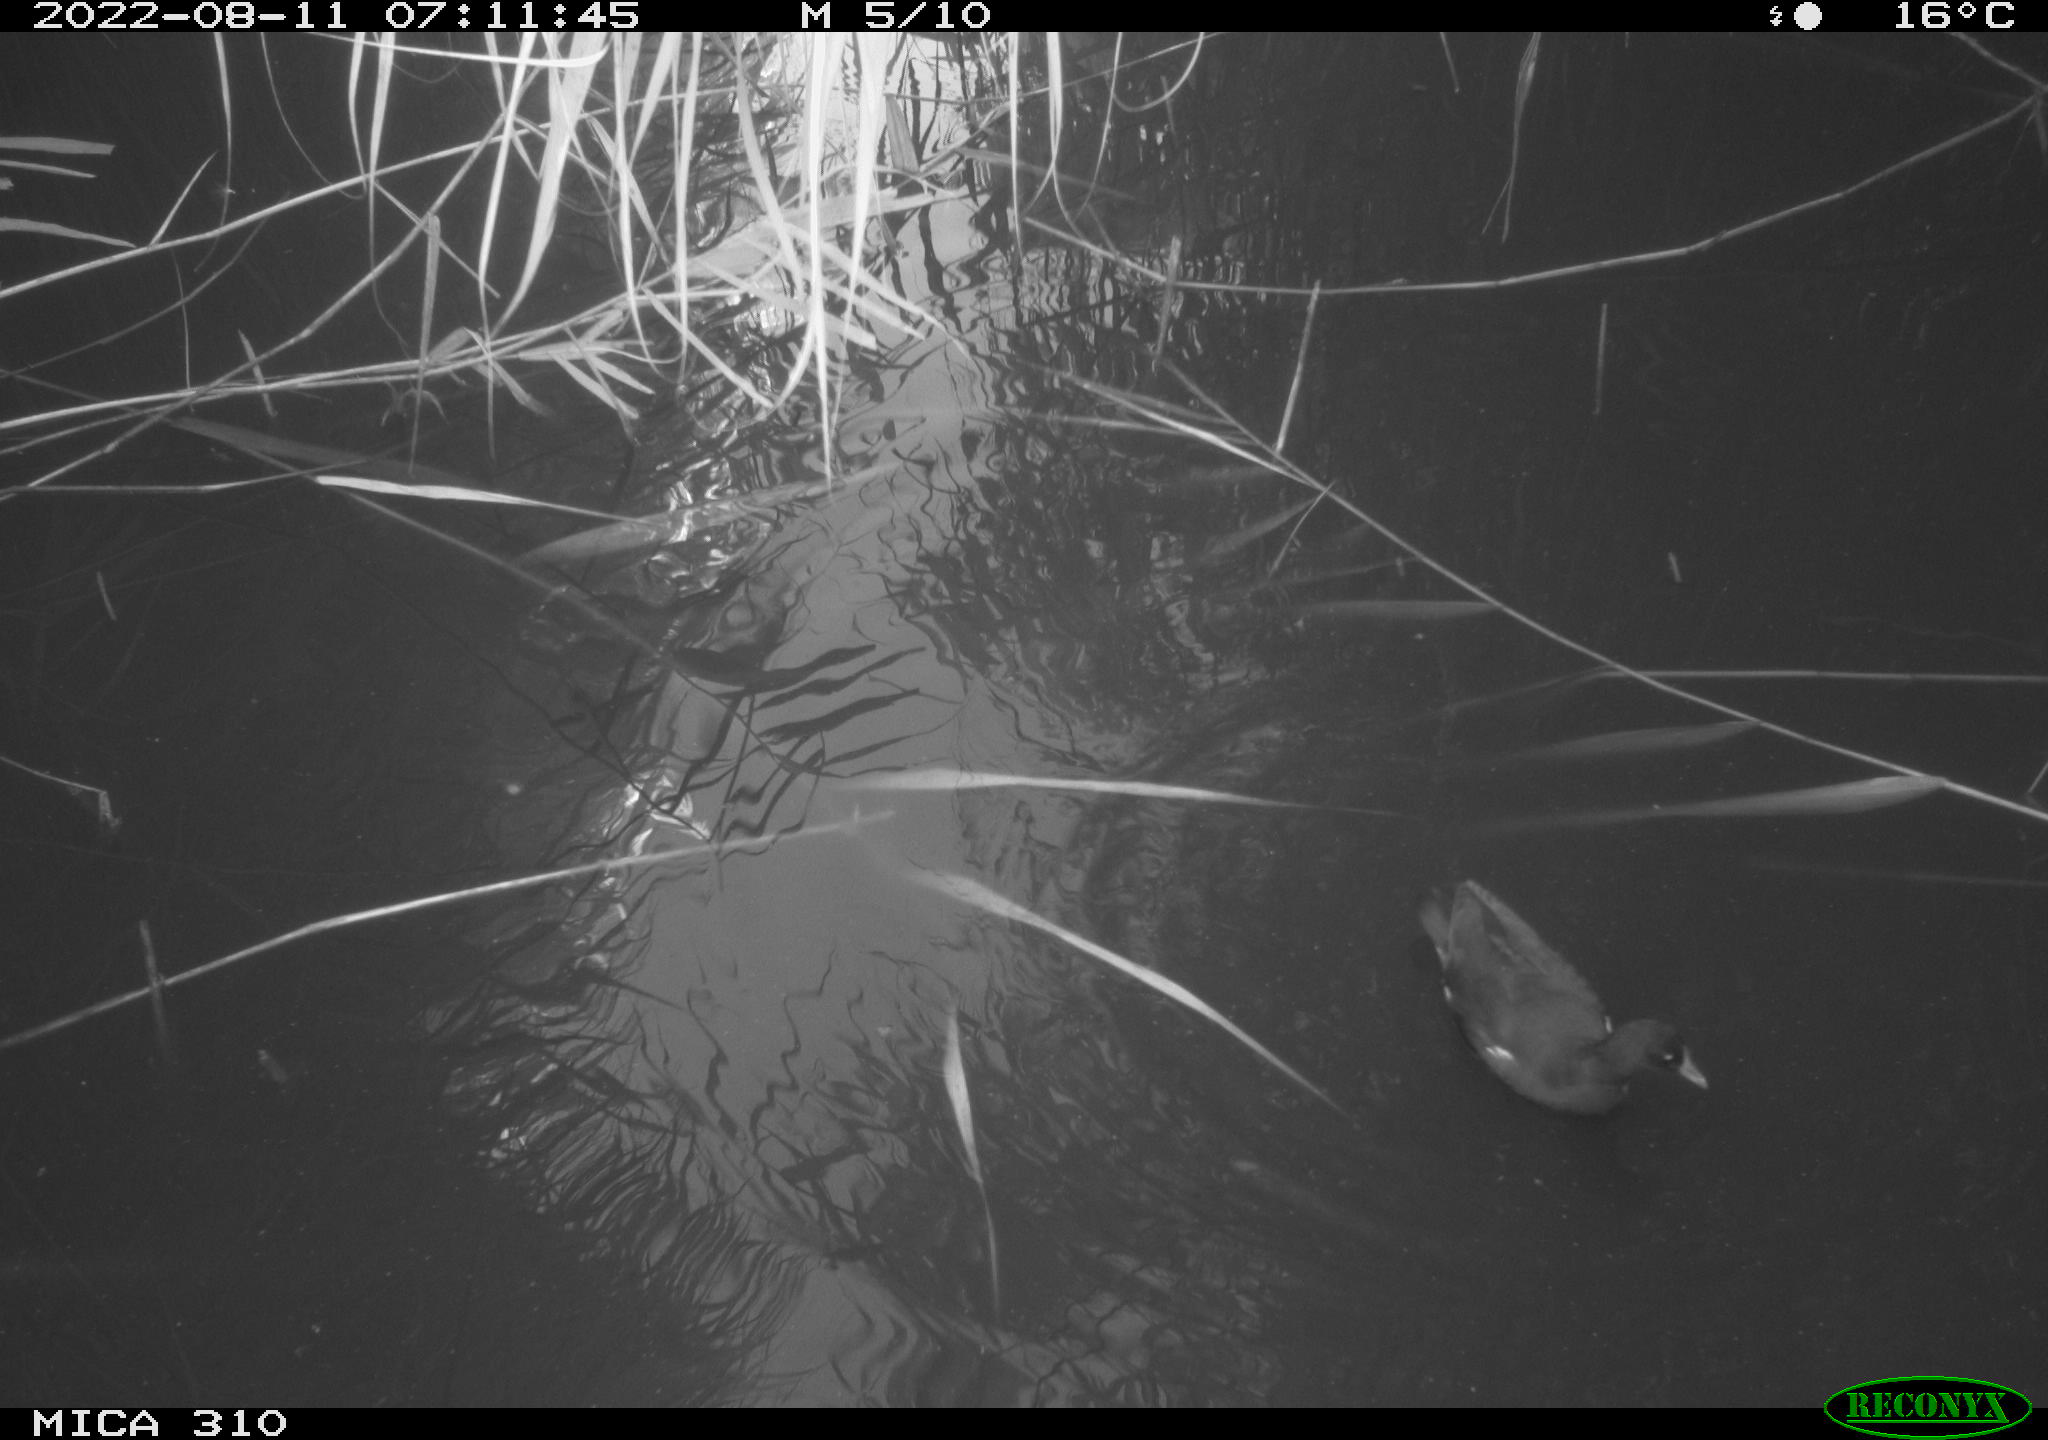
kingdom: Animalia
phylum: Chordata
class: Aves
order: Gruiformes
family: Rallidae
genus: Gallinula
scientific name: Gallinula chloropus
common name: Common moorhen
